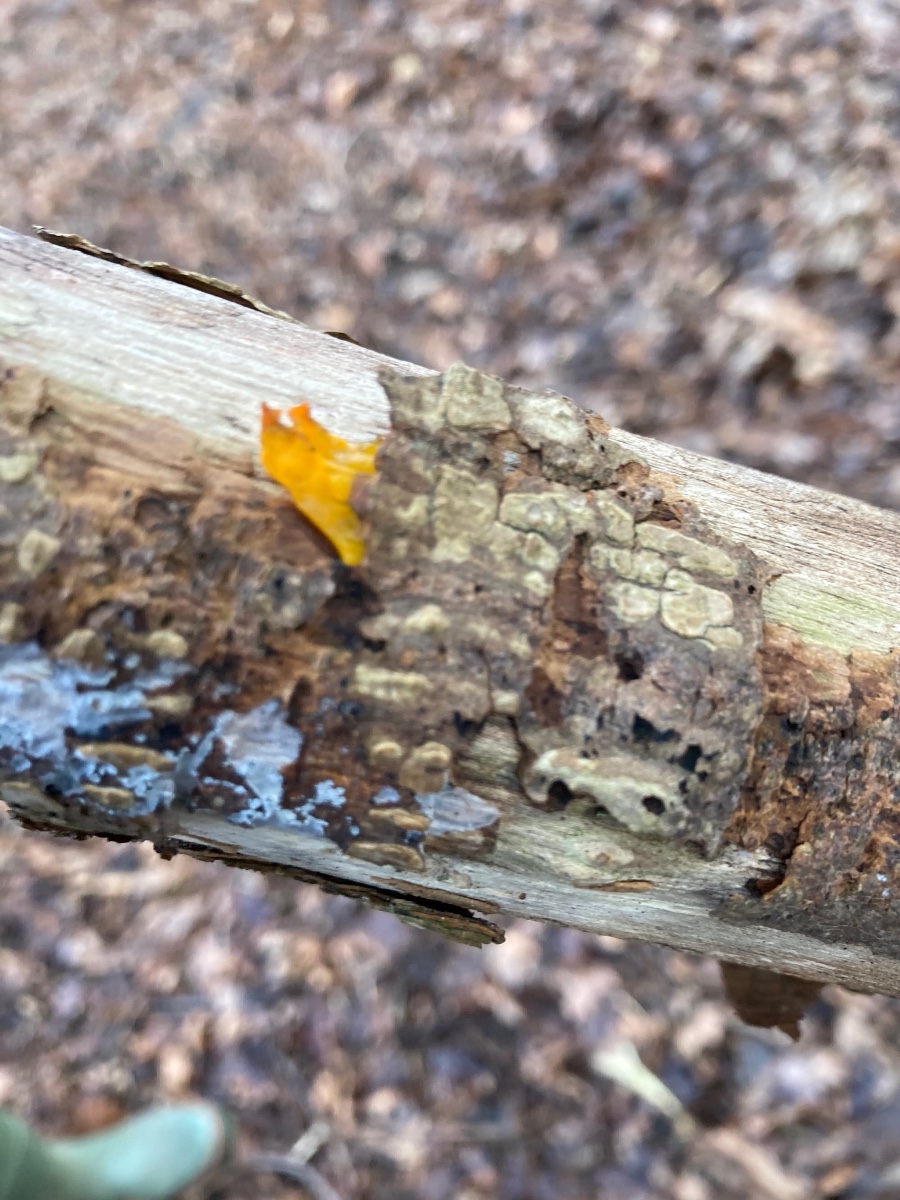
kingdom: Fungi
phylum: Basidiomycota
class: Tremellomycetes
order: Tremellales
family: Tremellaceae
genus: Tremella
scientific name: Tremella mesenterica
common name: gul bævresvamp
